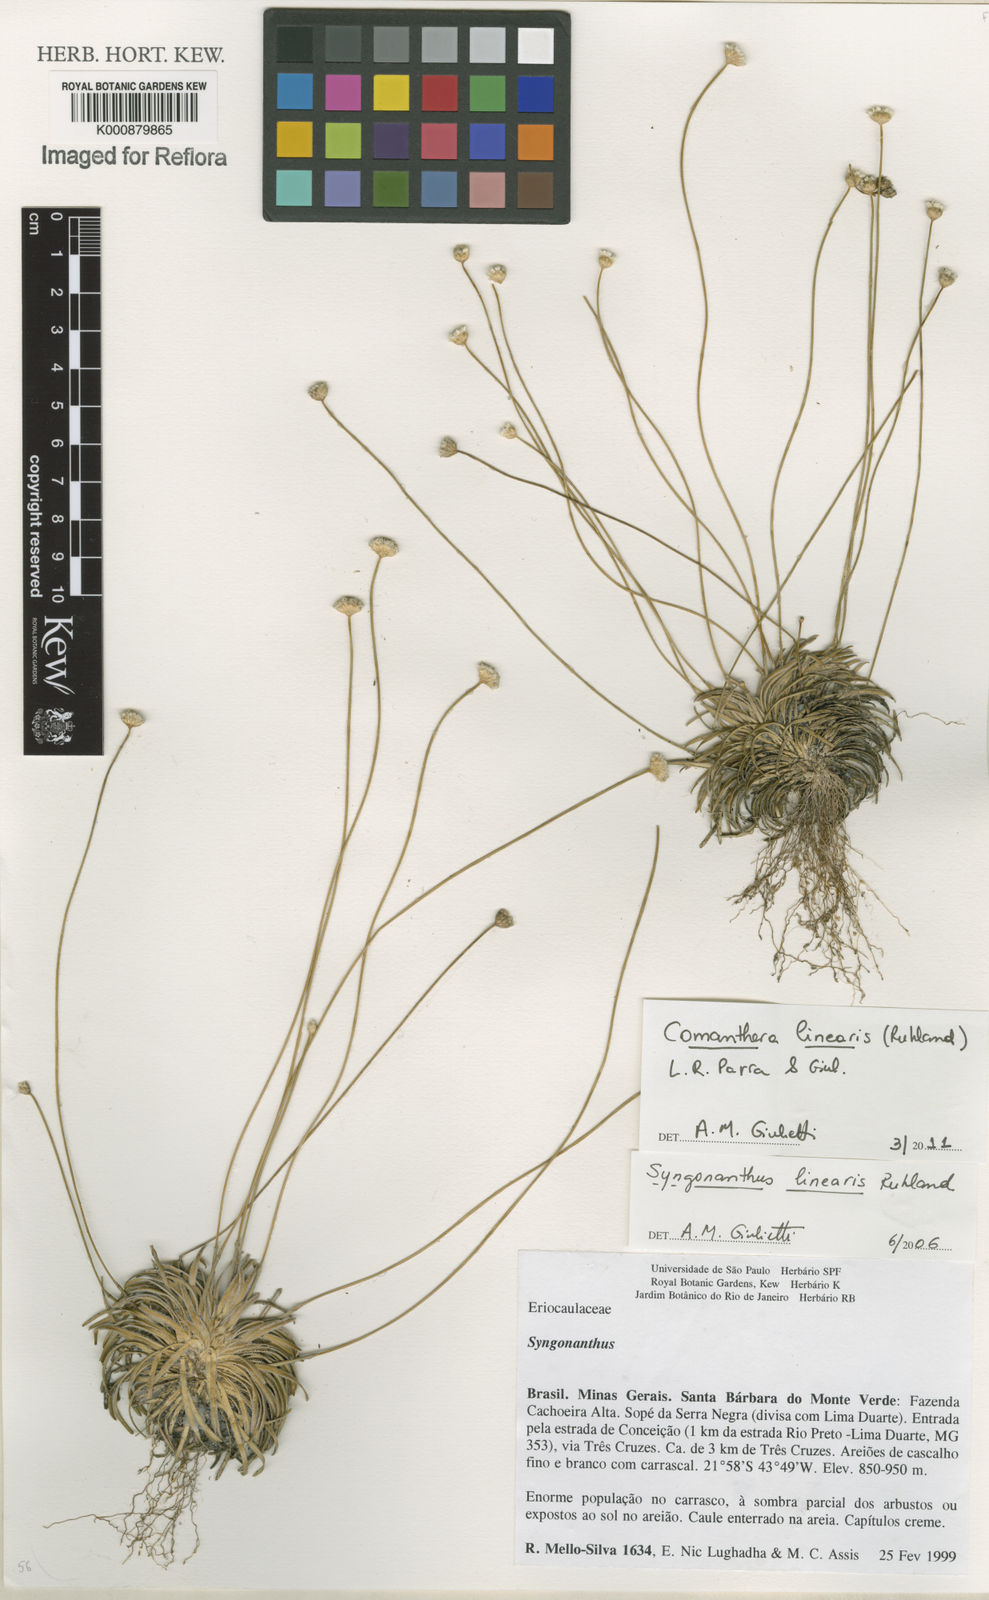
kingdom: Plantae
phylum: Tracheophyta
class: Liliopsida
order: Poales
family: Eriocaulaceae
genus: Comanthera
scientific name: Comanthera caespitosa
